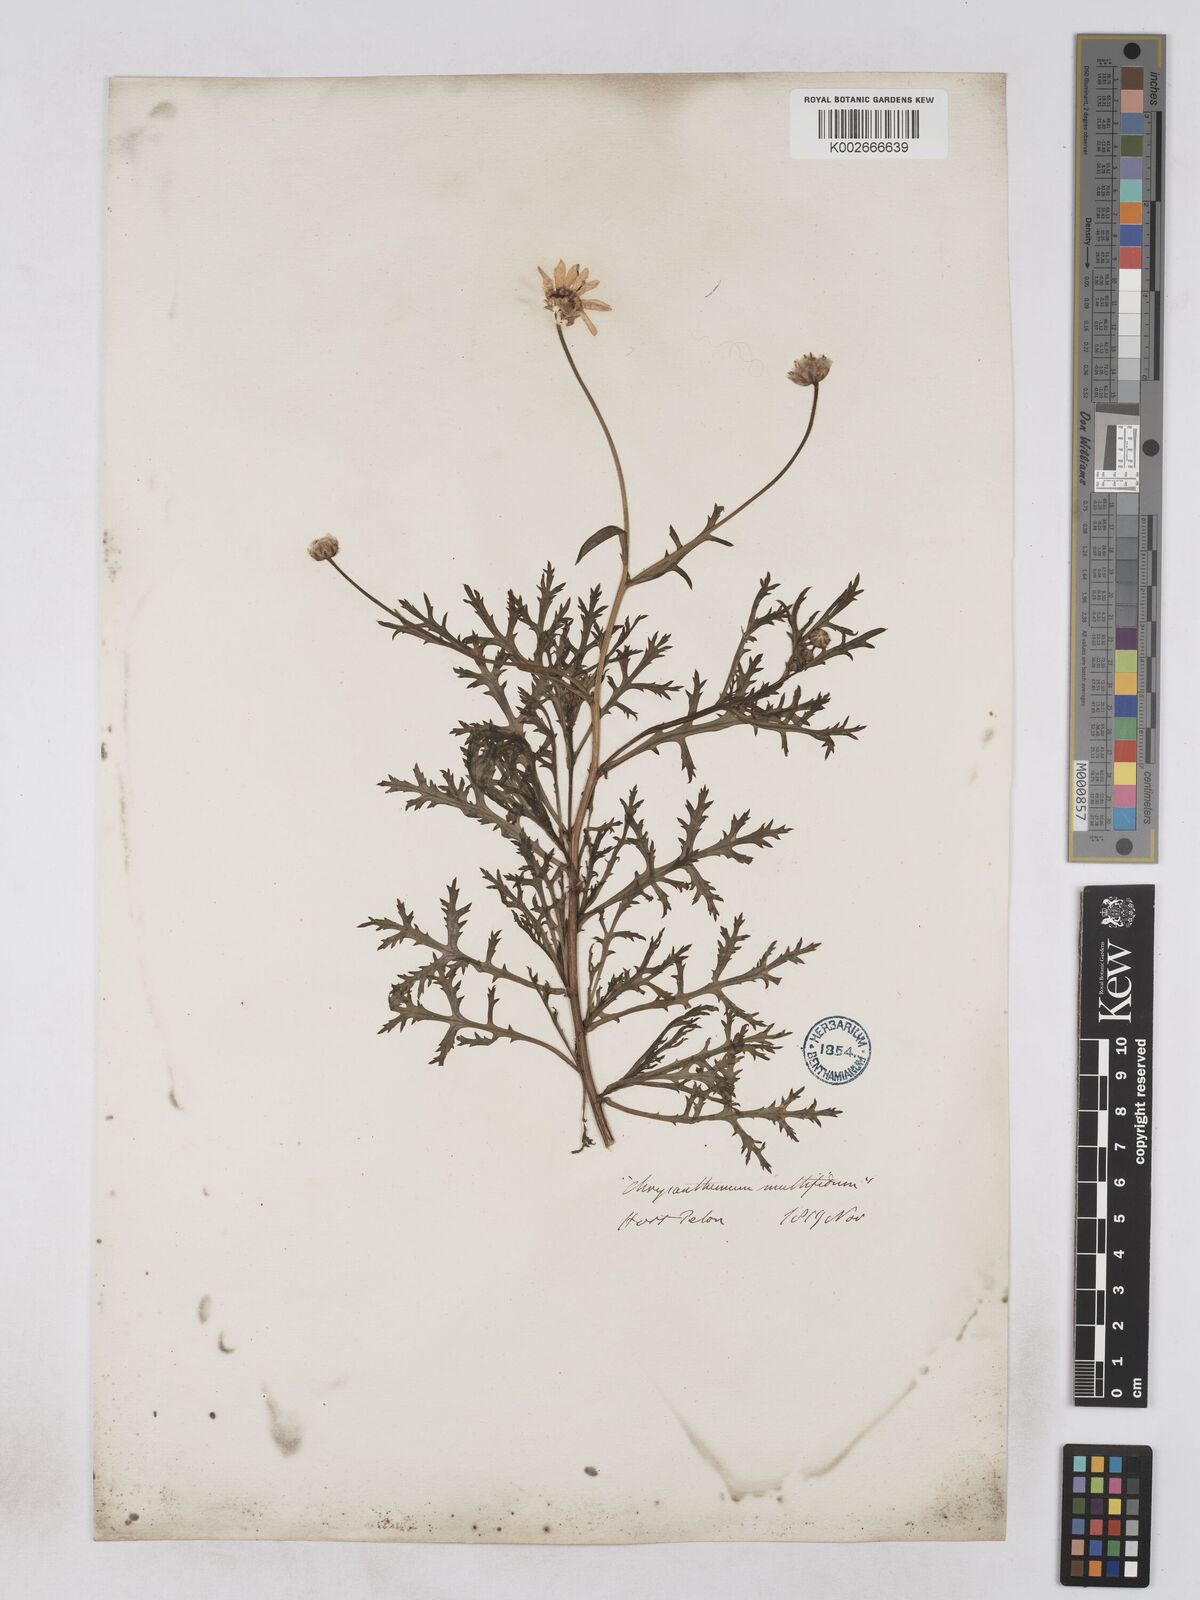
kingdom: Plantae
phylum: Tracheophyta
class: Magnoliopsida
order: Asterales
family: Asteraceae
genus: Argyranthemum
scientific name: Argyranthemum
